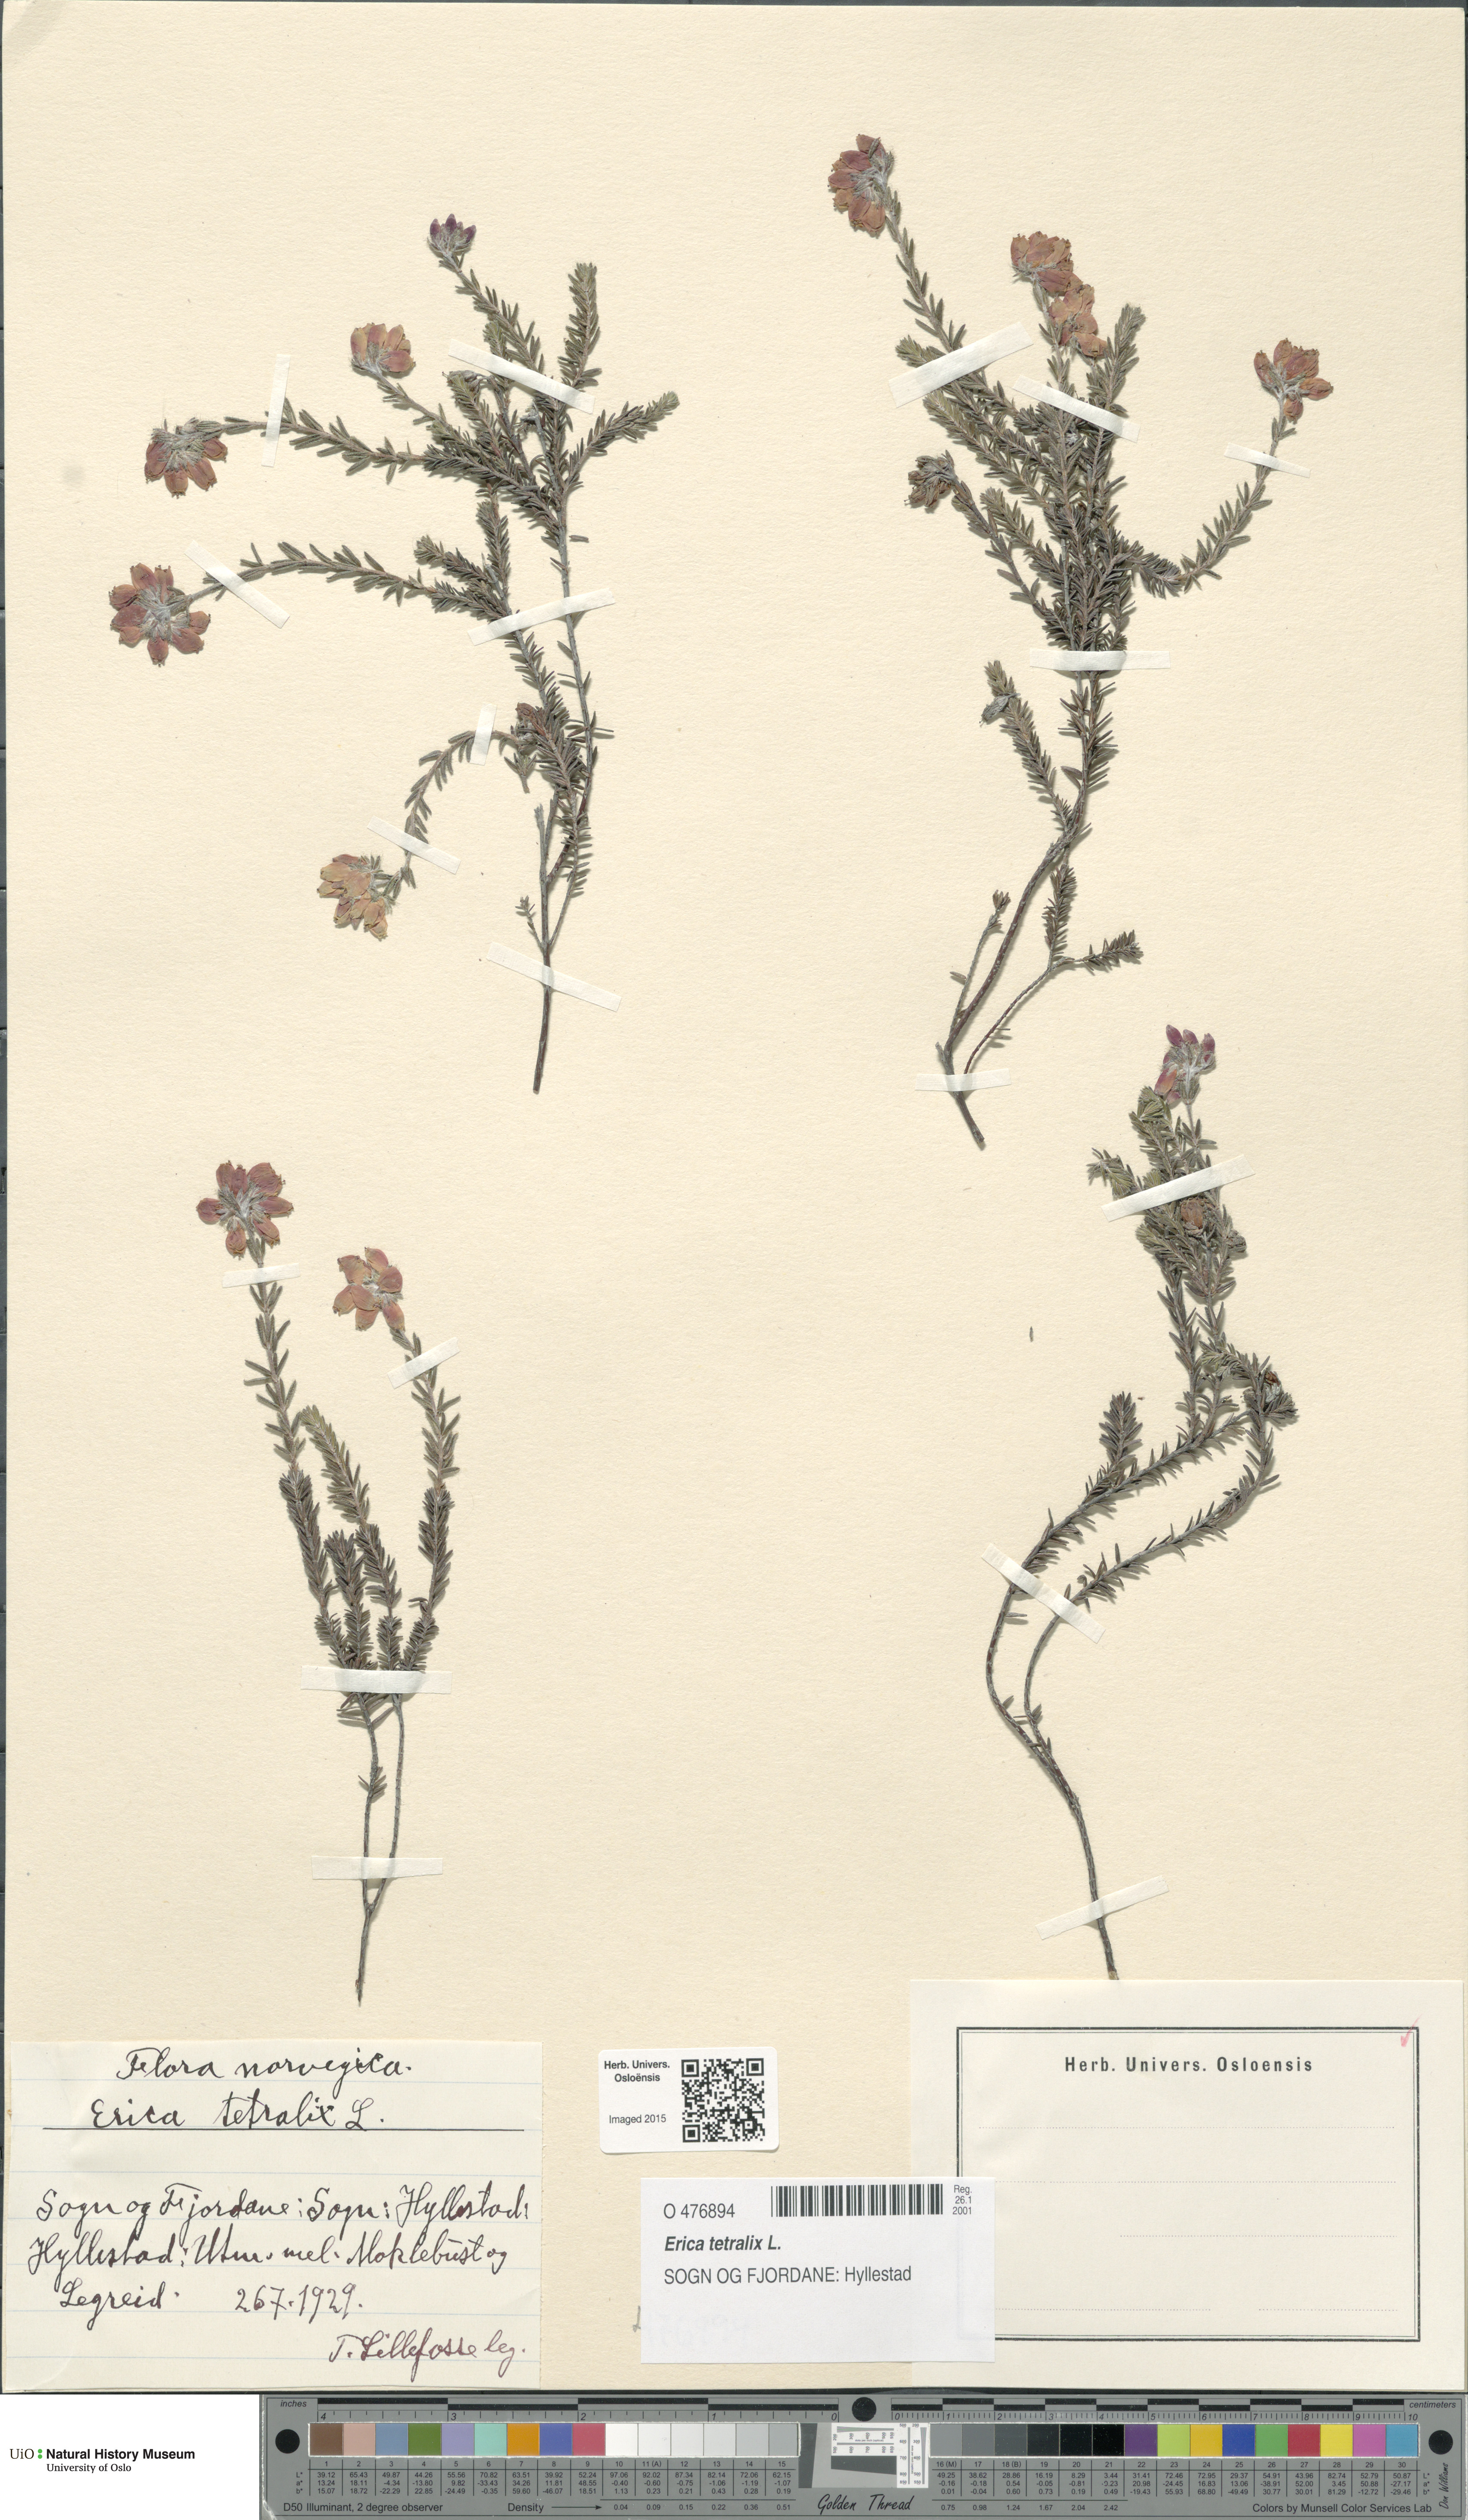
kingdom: Plantae
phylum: Tracheophyta
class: Magnoliopsida
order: Ericales
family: Ericaceae
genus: Erica
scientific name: Erica tetralix
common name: Cross-leaved heath
